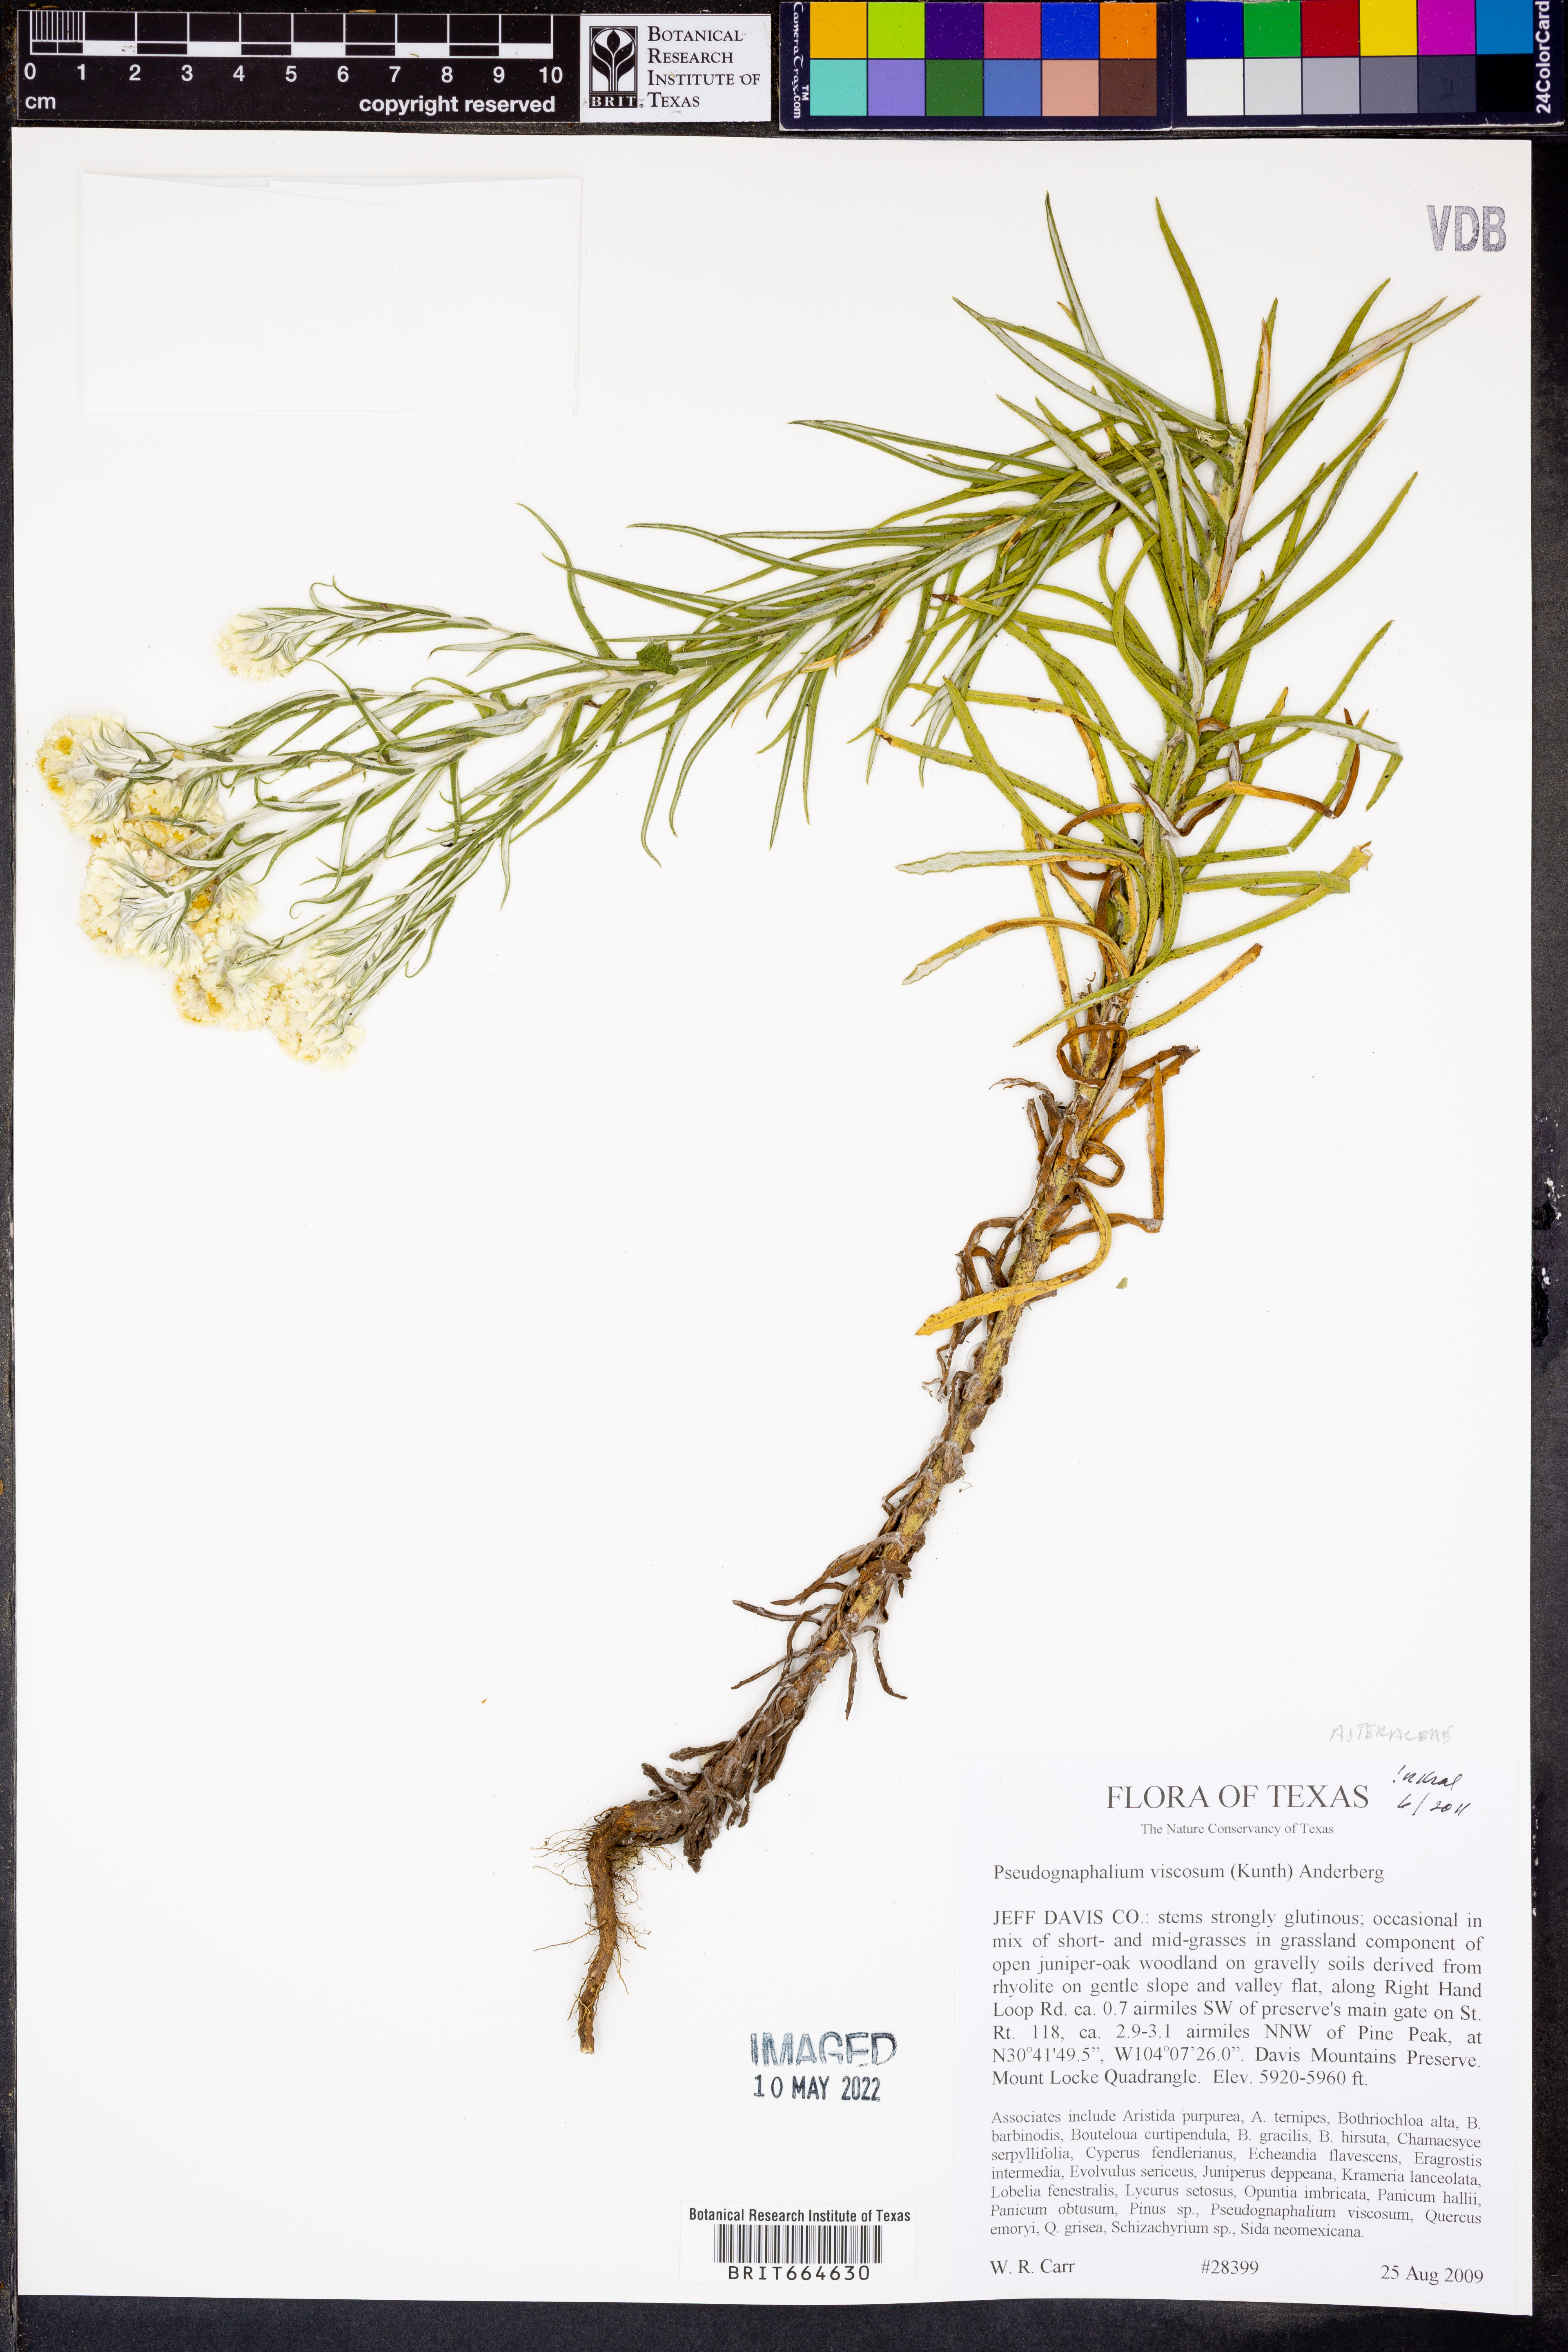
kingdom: Plantae
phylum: Tracheophyta
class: Magnoliopsida
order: Asterales
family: Asteraceae
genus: Pseudognaphalium
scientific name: Pseudognaphalium viscosum
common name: Sticky rabbit-tobacco
